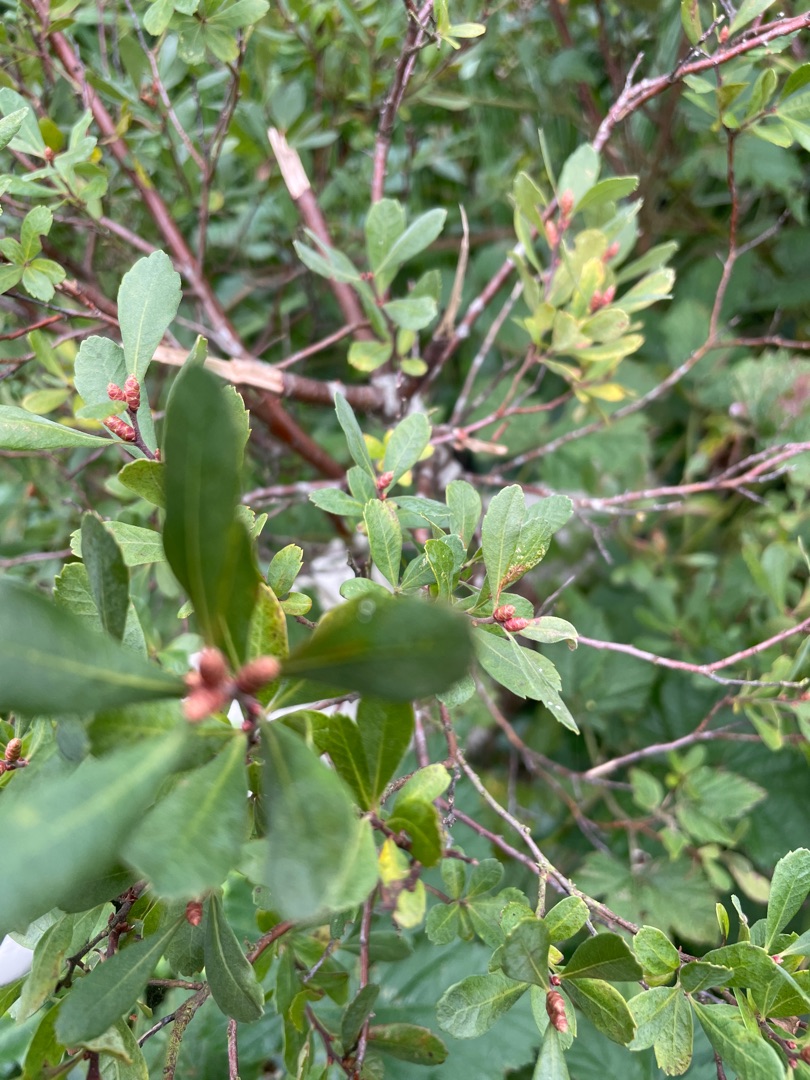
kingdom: Plantae
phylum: Tracheophyta
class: Magnoliopsida
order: Fagales
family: Myricaceae
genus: Myrica
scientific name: Myrica gale
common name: Pors
